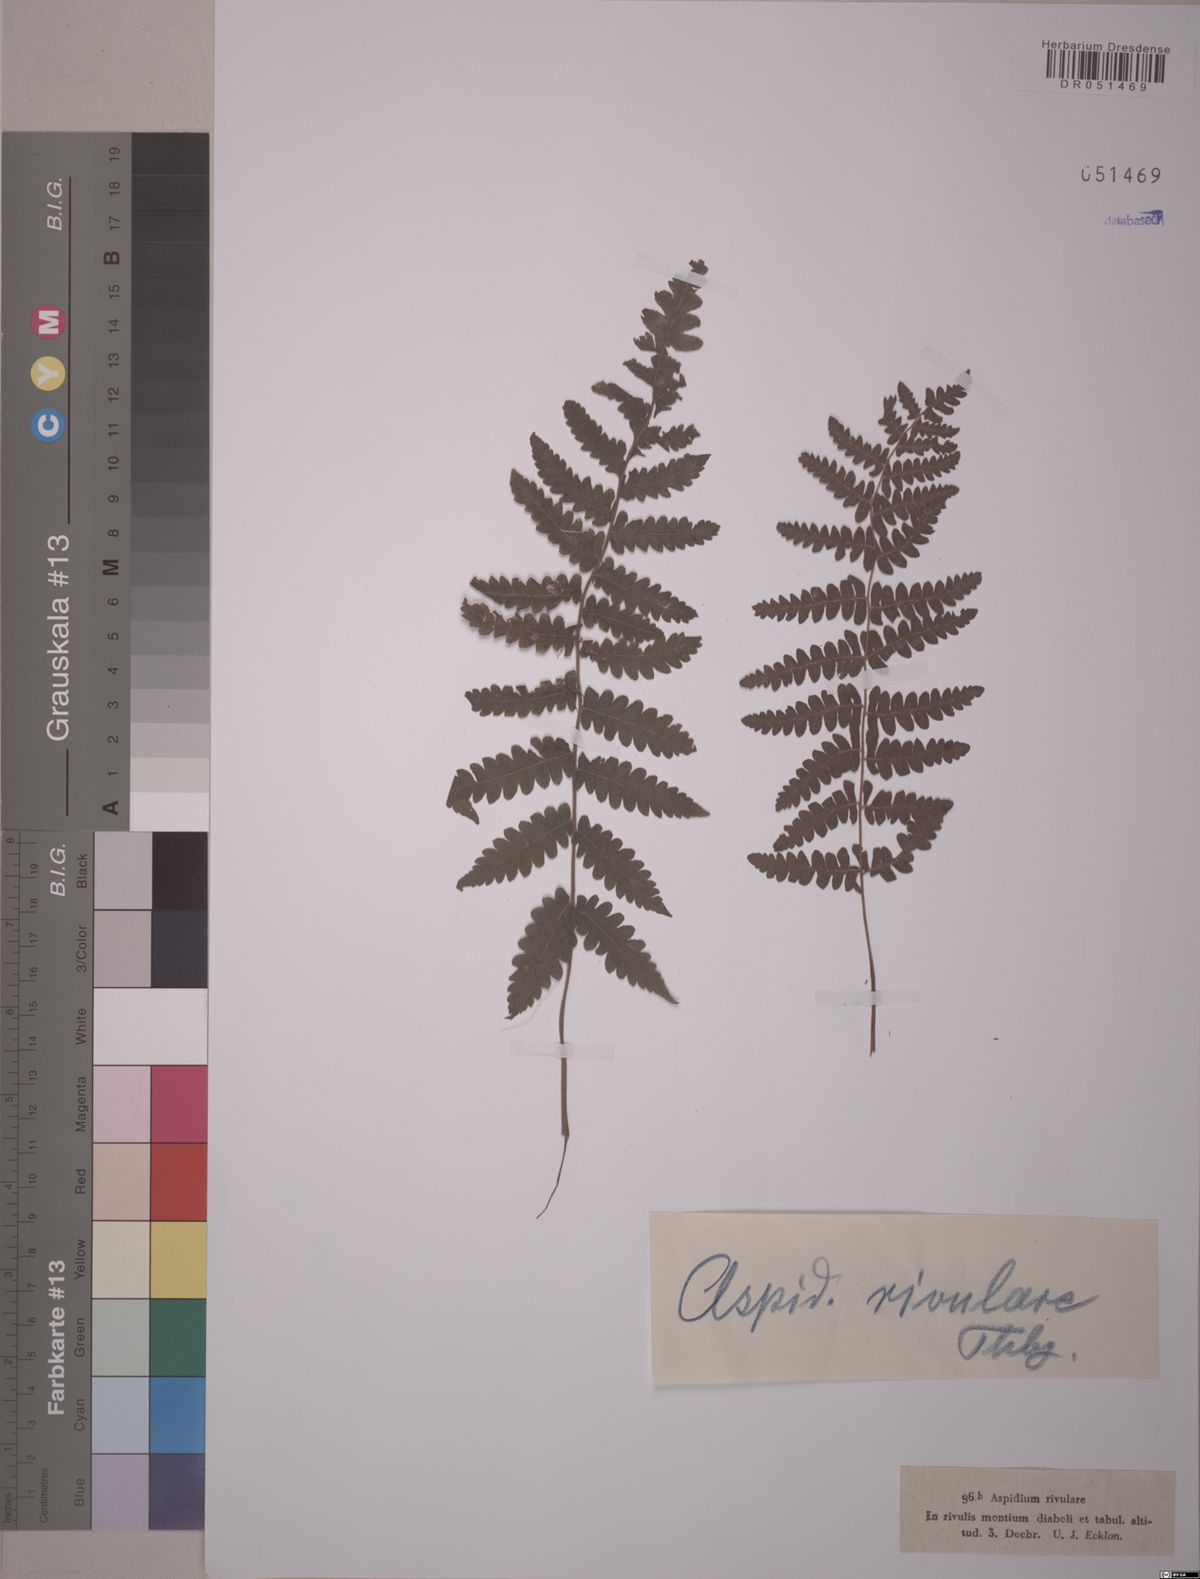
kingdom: Plantae
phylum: Tracheophyta
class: Polypodiopsida
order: Polypodiales
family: Tectariaceae
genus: Tectaria
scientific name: Tectaria
